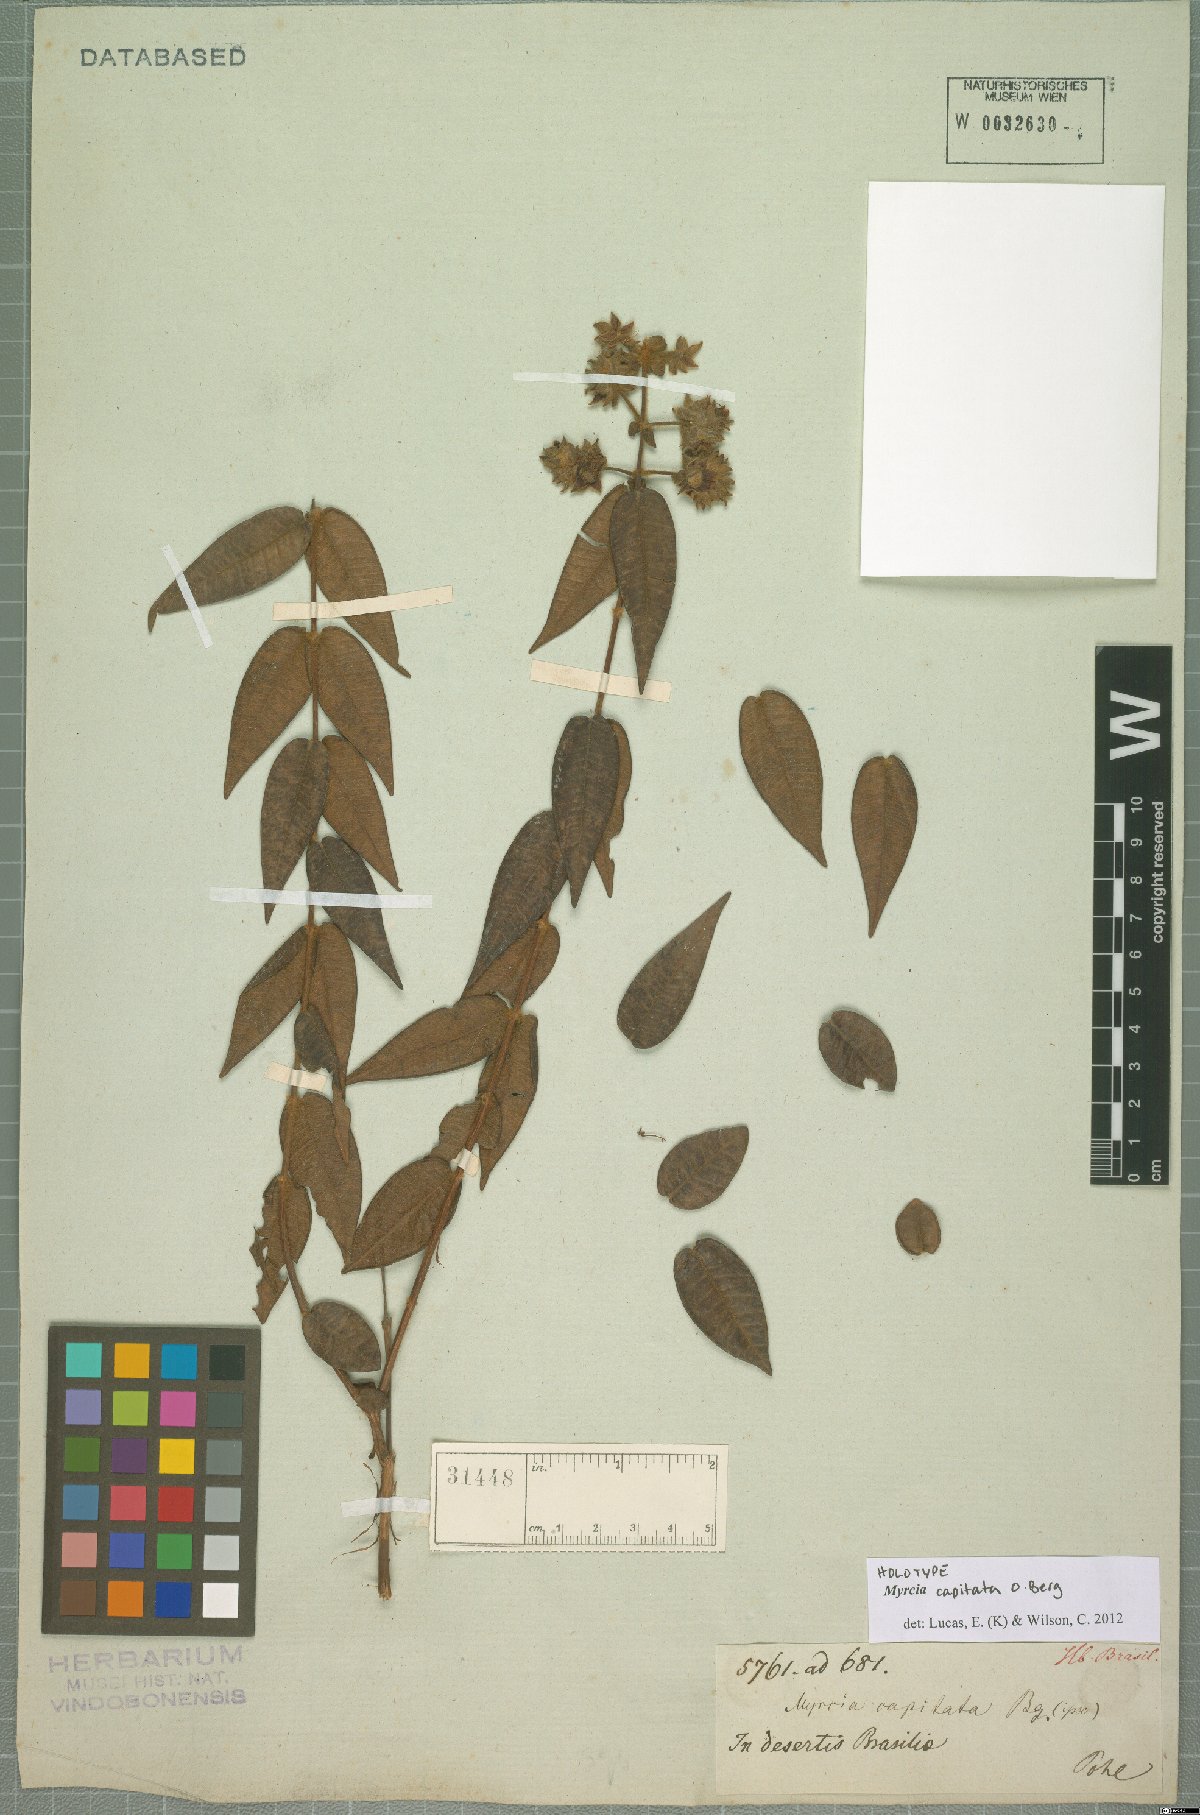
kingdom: Plantae
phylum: Tracheophyta
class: Magnoliopsida
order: Myrtales
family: Myrtaceae
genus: Myrcia
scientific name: Myrcia capitata
